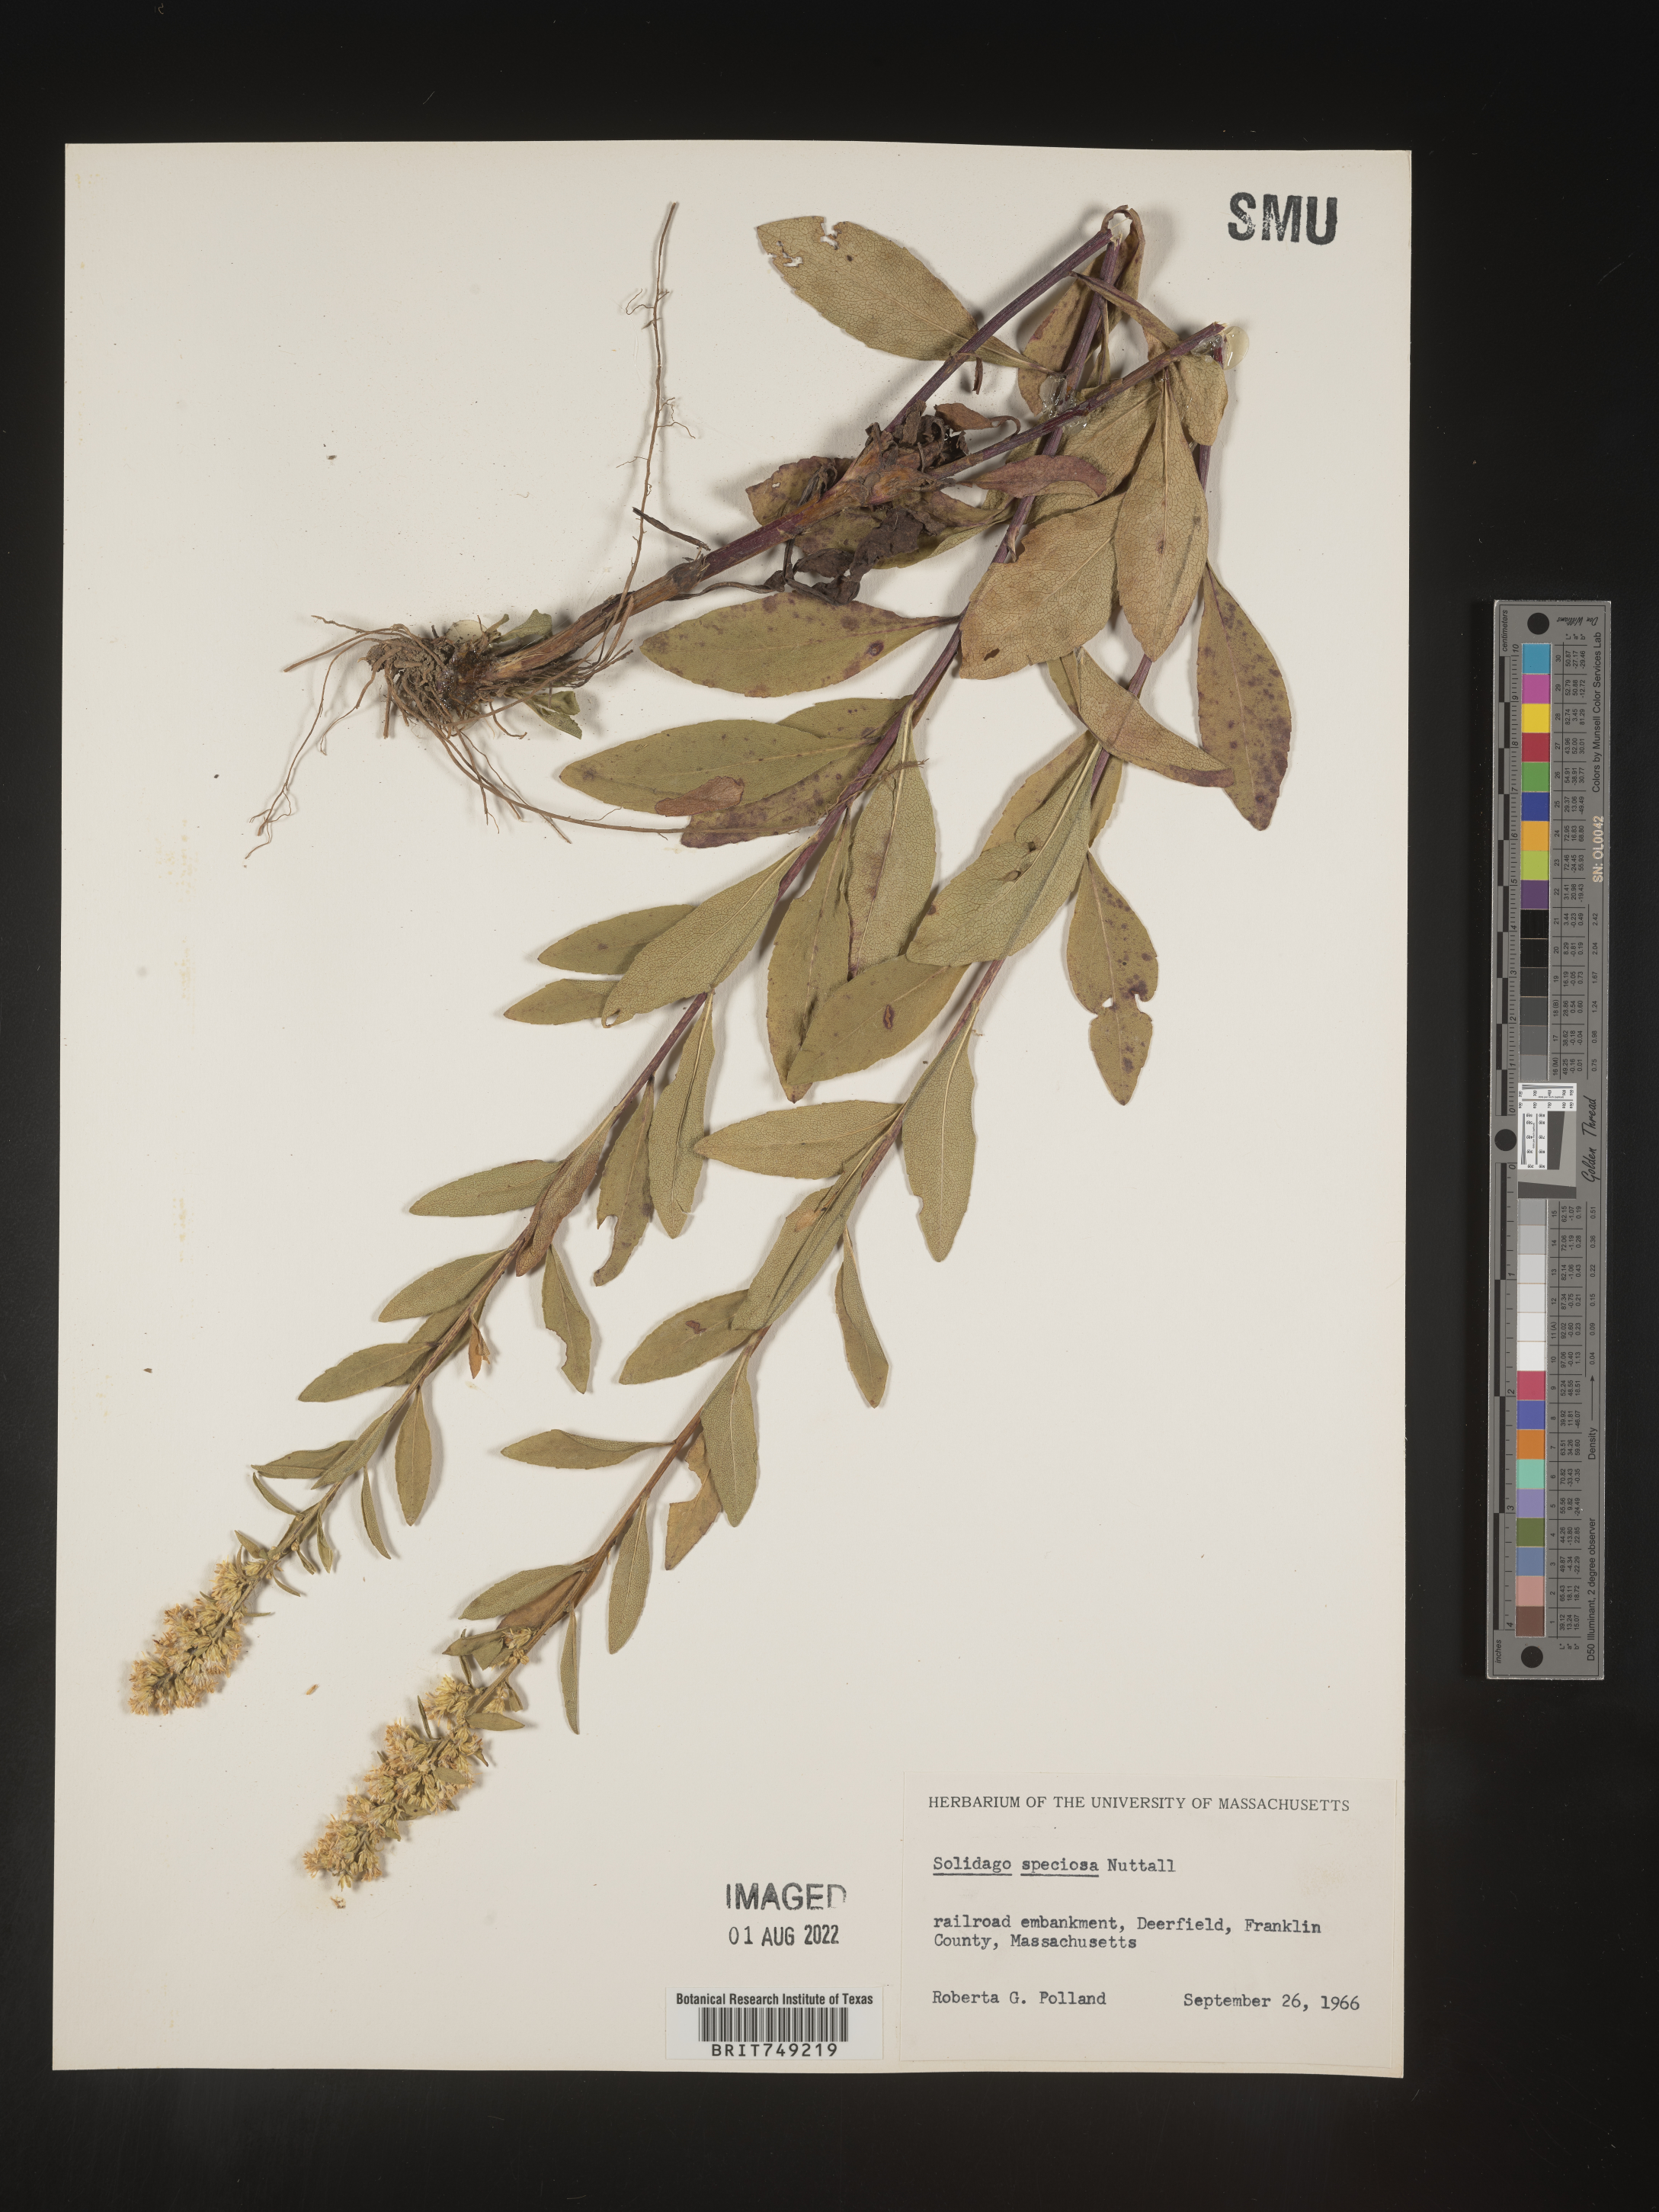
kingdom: Plantae
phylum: Tracheophyta
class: Magnoliopsida
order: Asterales
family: Asteraceae
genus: Solidago
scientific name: Solidago speciosa
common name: Showy goldenrod
